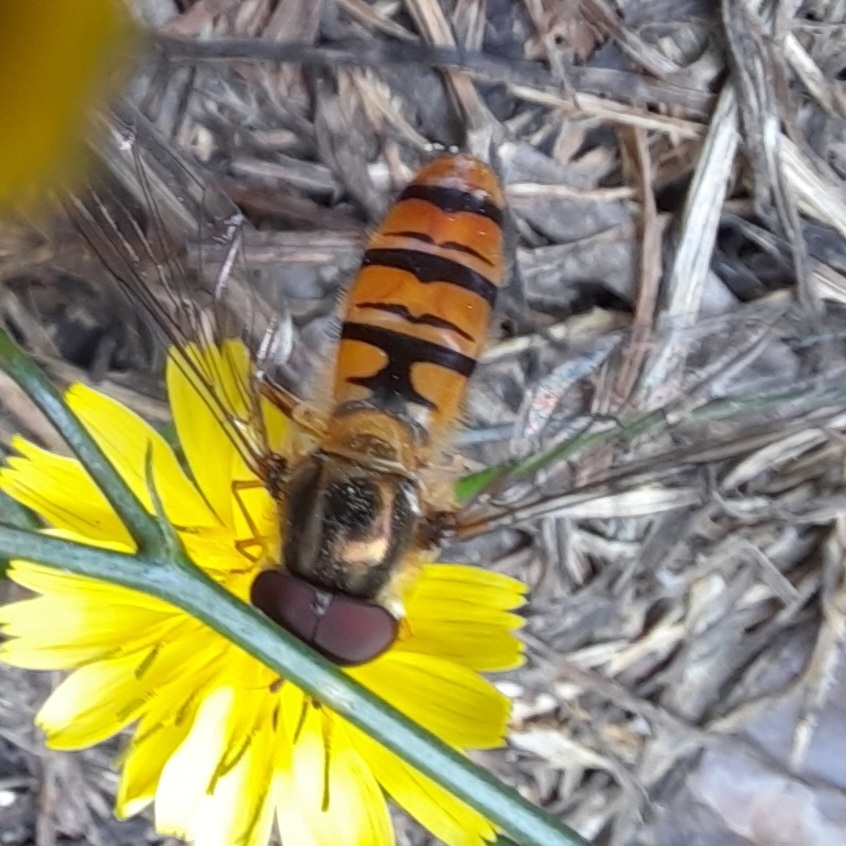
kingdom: Animalia
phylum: Arthropoda
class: Insecta
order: Diptera
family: Syrphidae
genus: Episyrphus
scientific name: Episyrphus balteatus
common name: Dobbeltbåndet svirreflue
